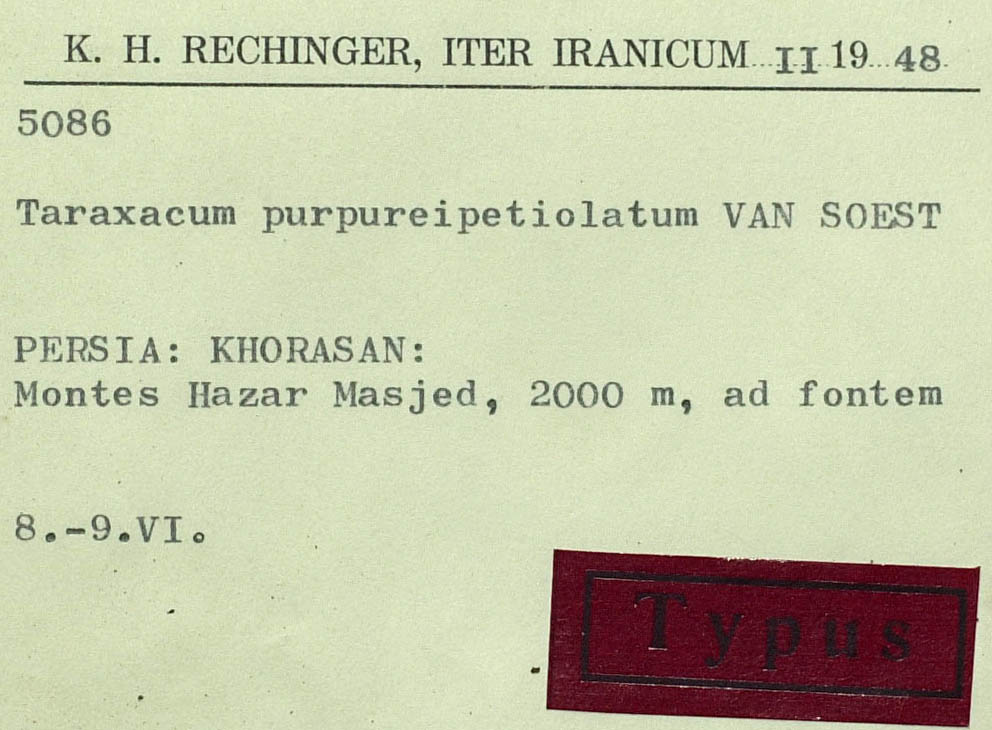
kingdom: Plantae
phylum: Tracheophyta
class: Magnoliopsida
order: Asterales
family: Asteraceae
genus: Taraxacum
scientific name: Taraxacum purpureipetiolatum
